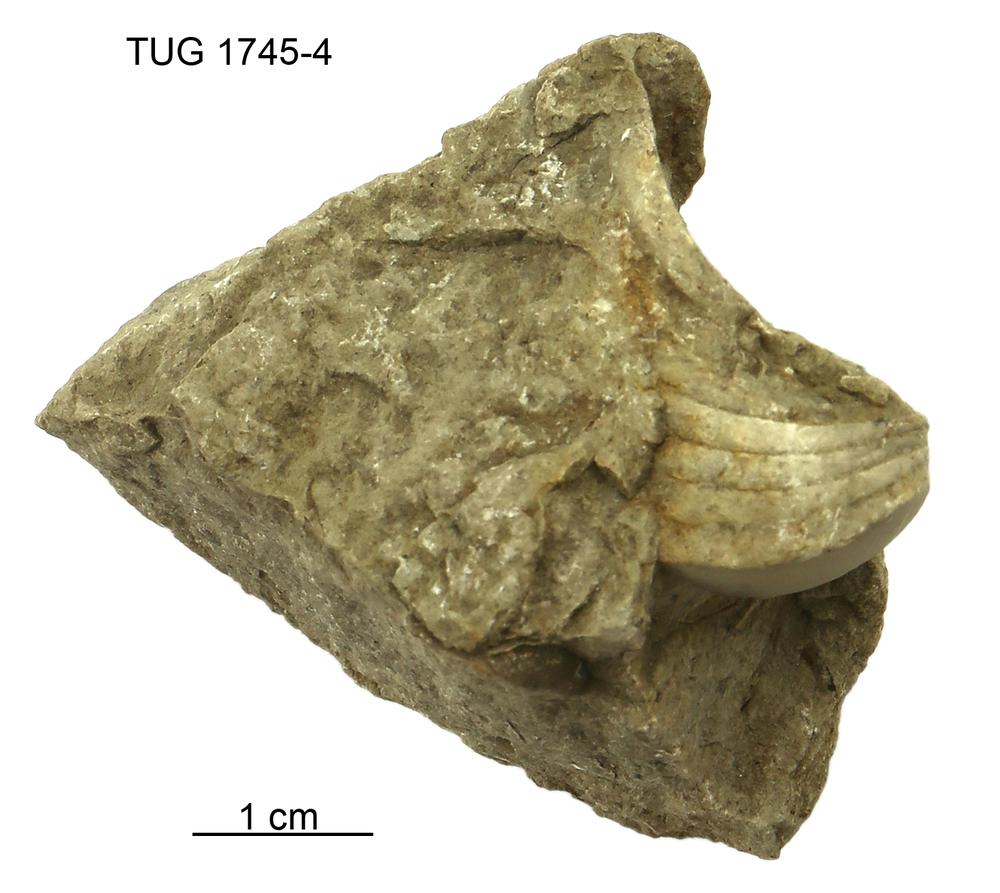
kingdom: Animalia
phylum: Mollusca
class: Cephalopoda
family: Oncoceratidae
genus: Beloitoceras
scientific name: Beloitoceras
